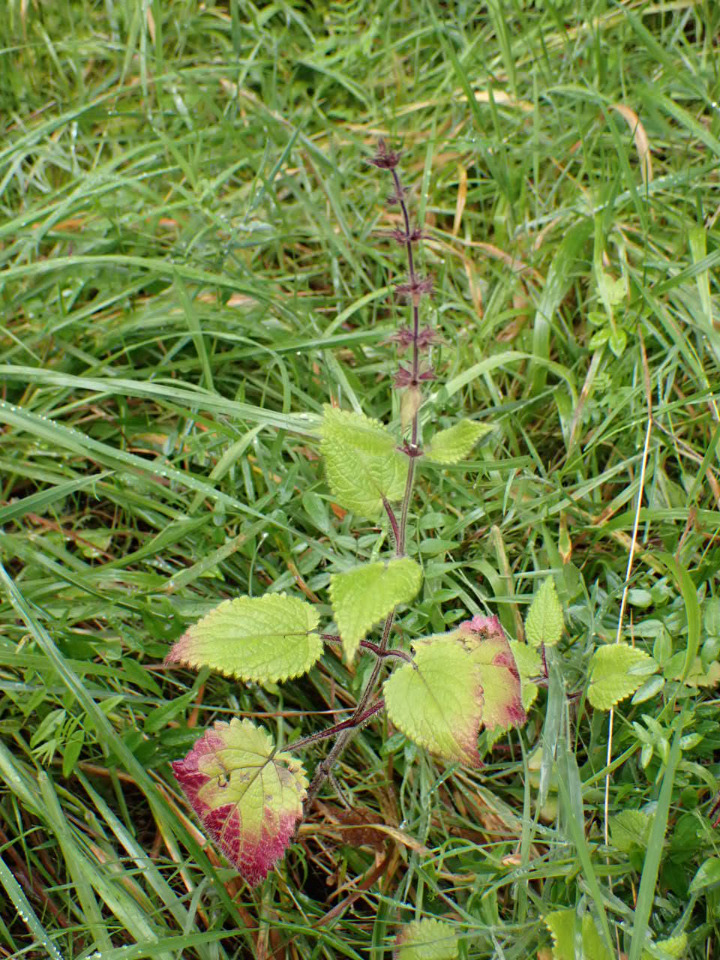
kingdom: Plantae
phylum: Tracheophyta
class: Magnoliopsida
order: Lamiales
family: Lamiaceae
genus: Stachys
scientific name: Stachys sylvatica
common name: Skov-galtetand
